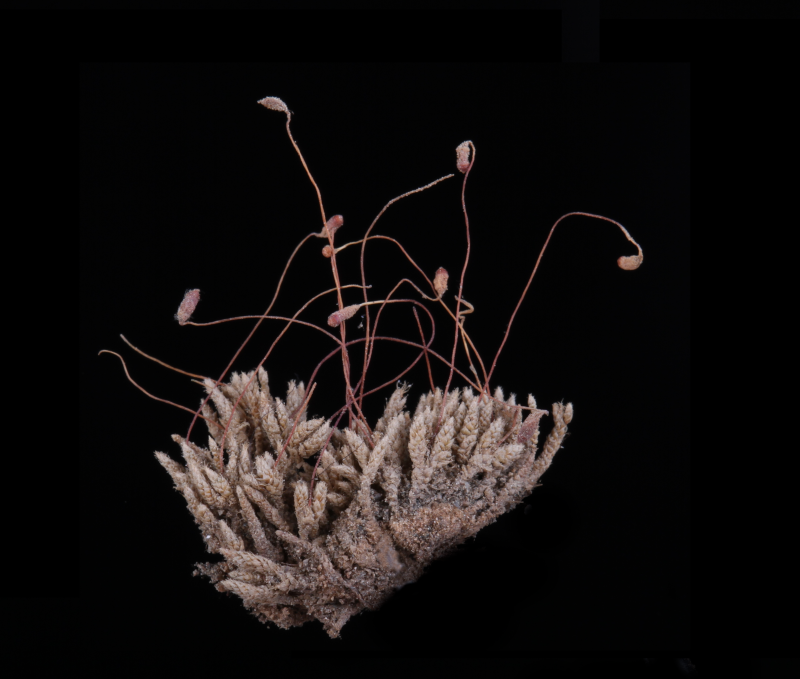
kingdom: Plantae
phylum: Bryophyta
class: Bryopsida
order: Bryales
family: Bryaceae
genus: Bryum
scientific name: Bryum argenteum
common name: Silver-moss
